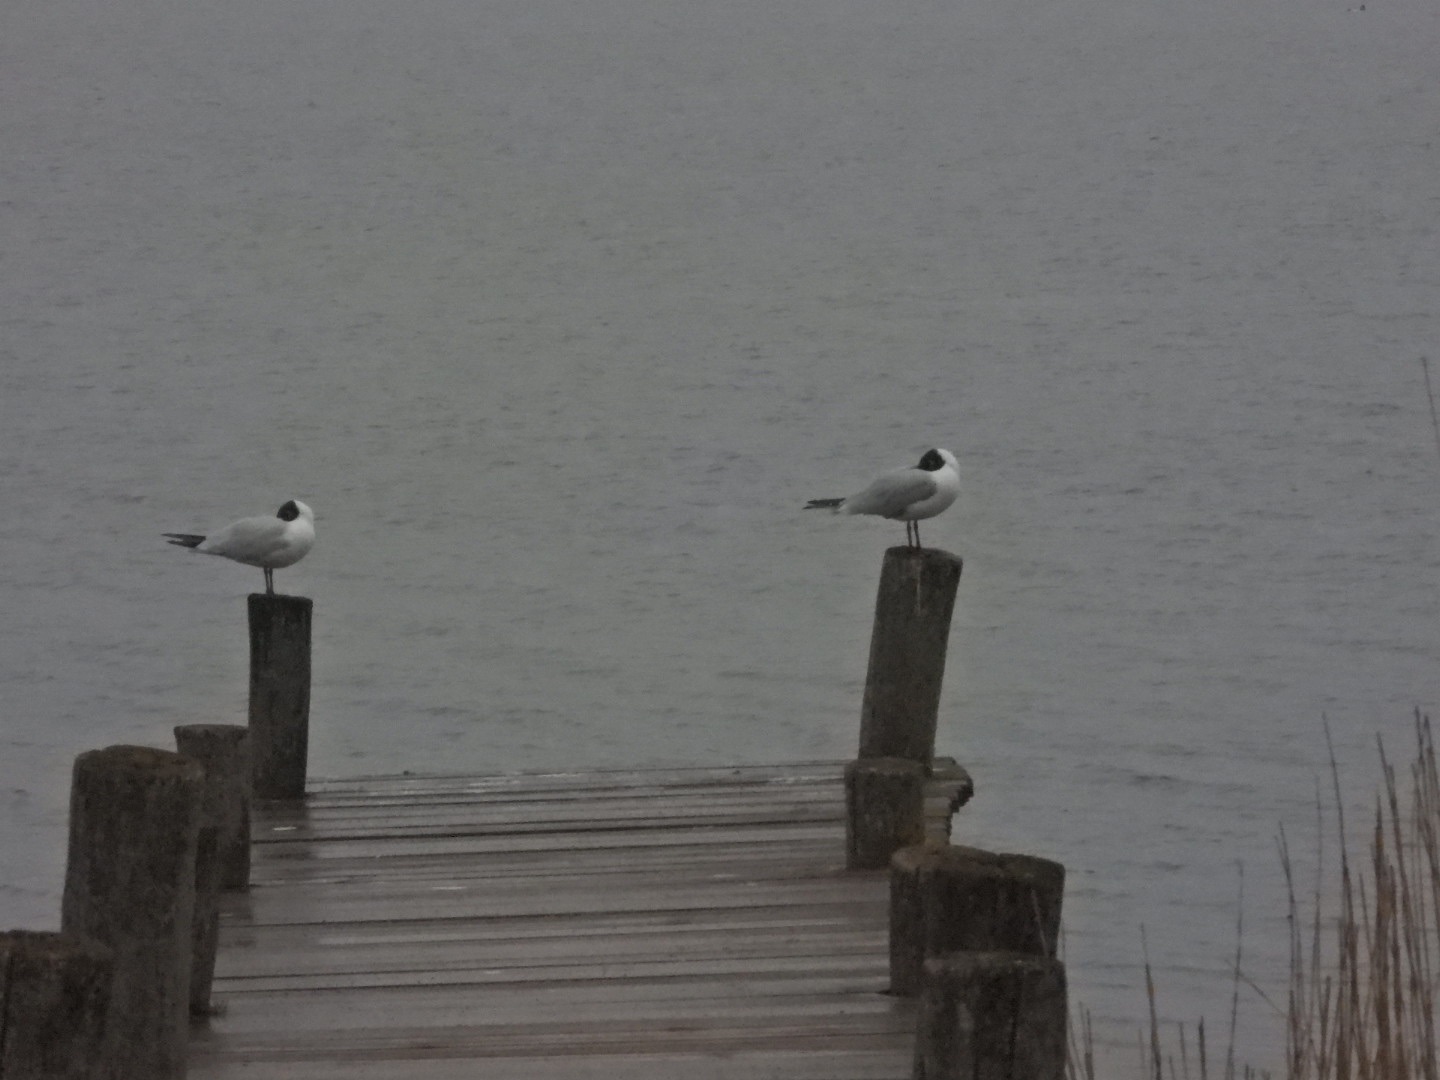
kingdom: Animalia
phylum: Chordata
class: Aves
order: Charadriiformes
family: Laridae
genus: Chroicocephalus
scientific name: Chroicocephalus ridibundus
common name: Hættemåge
